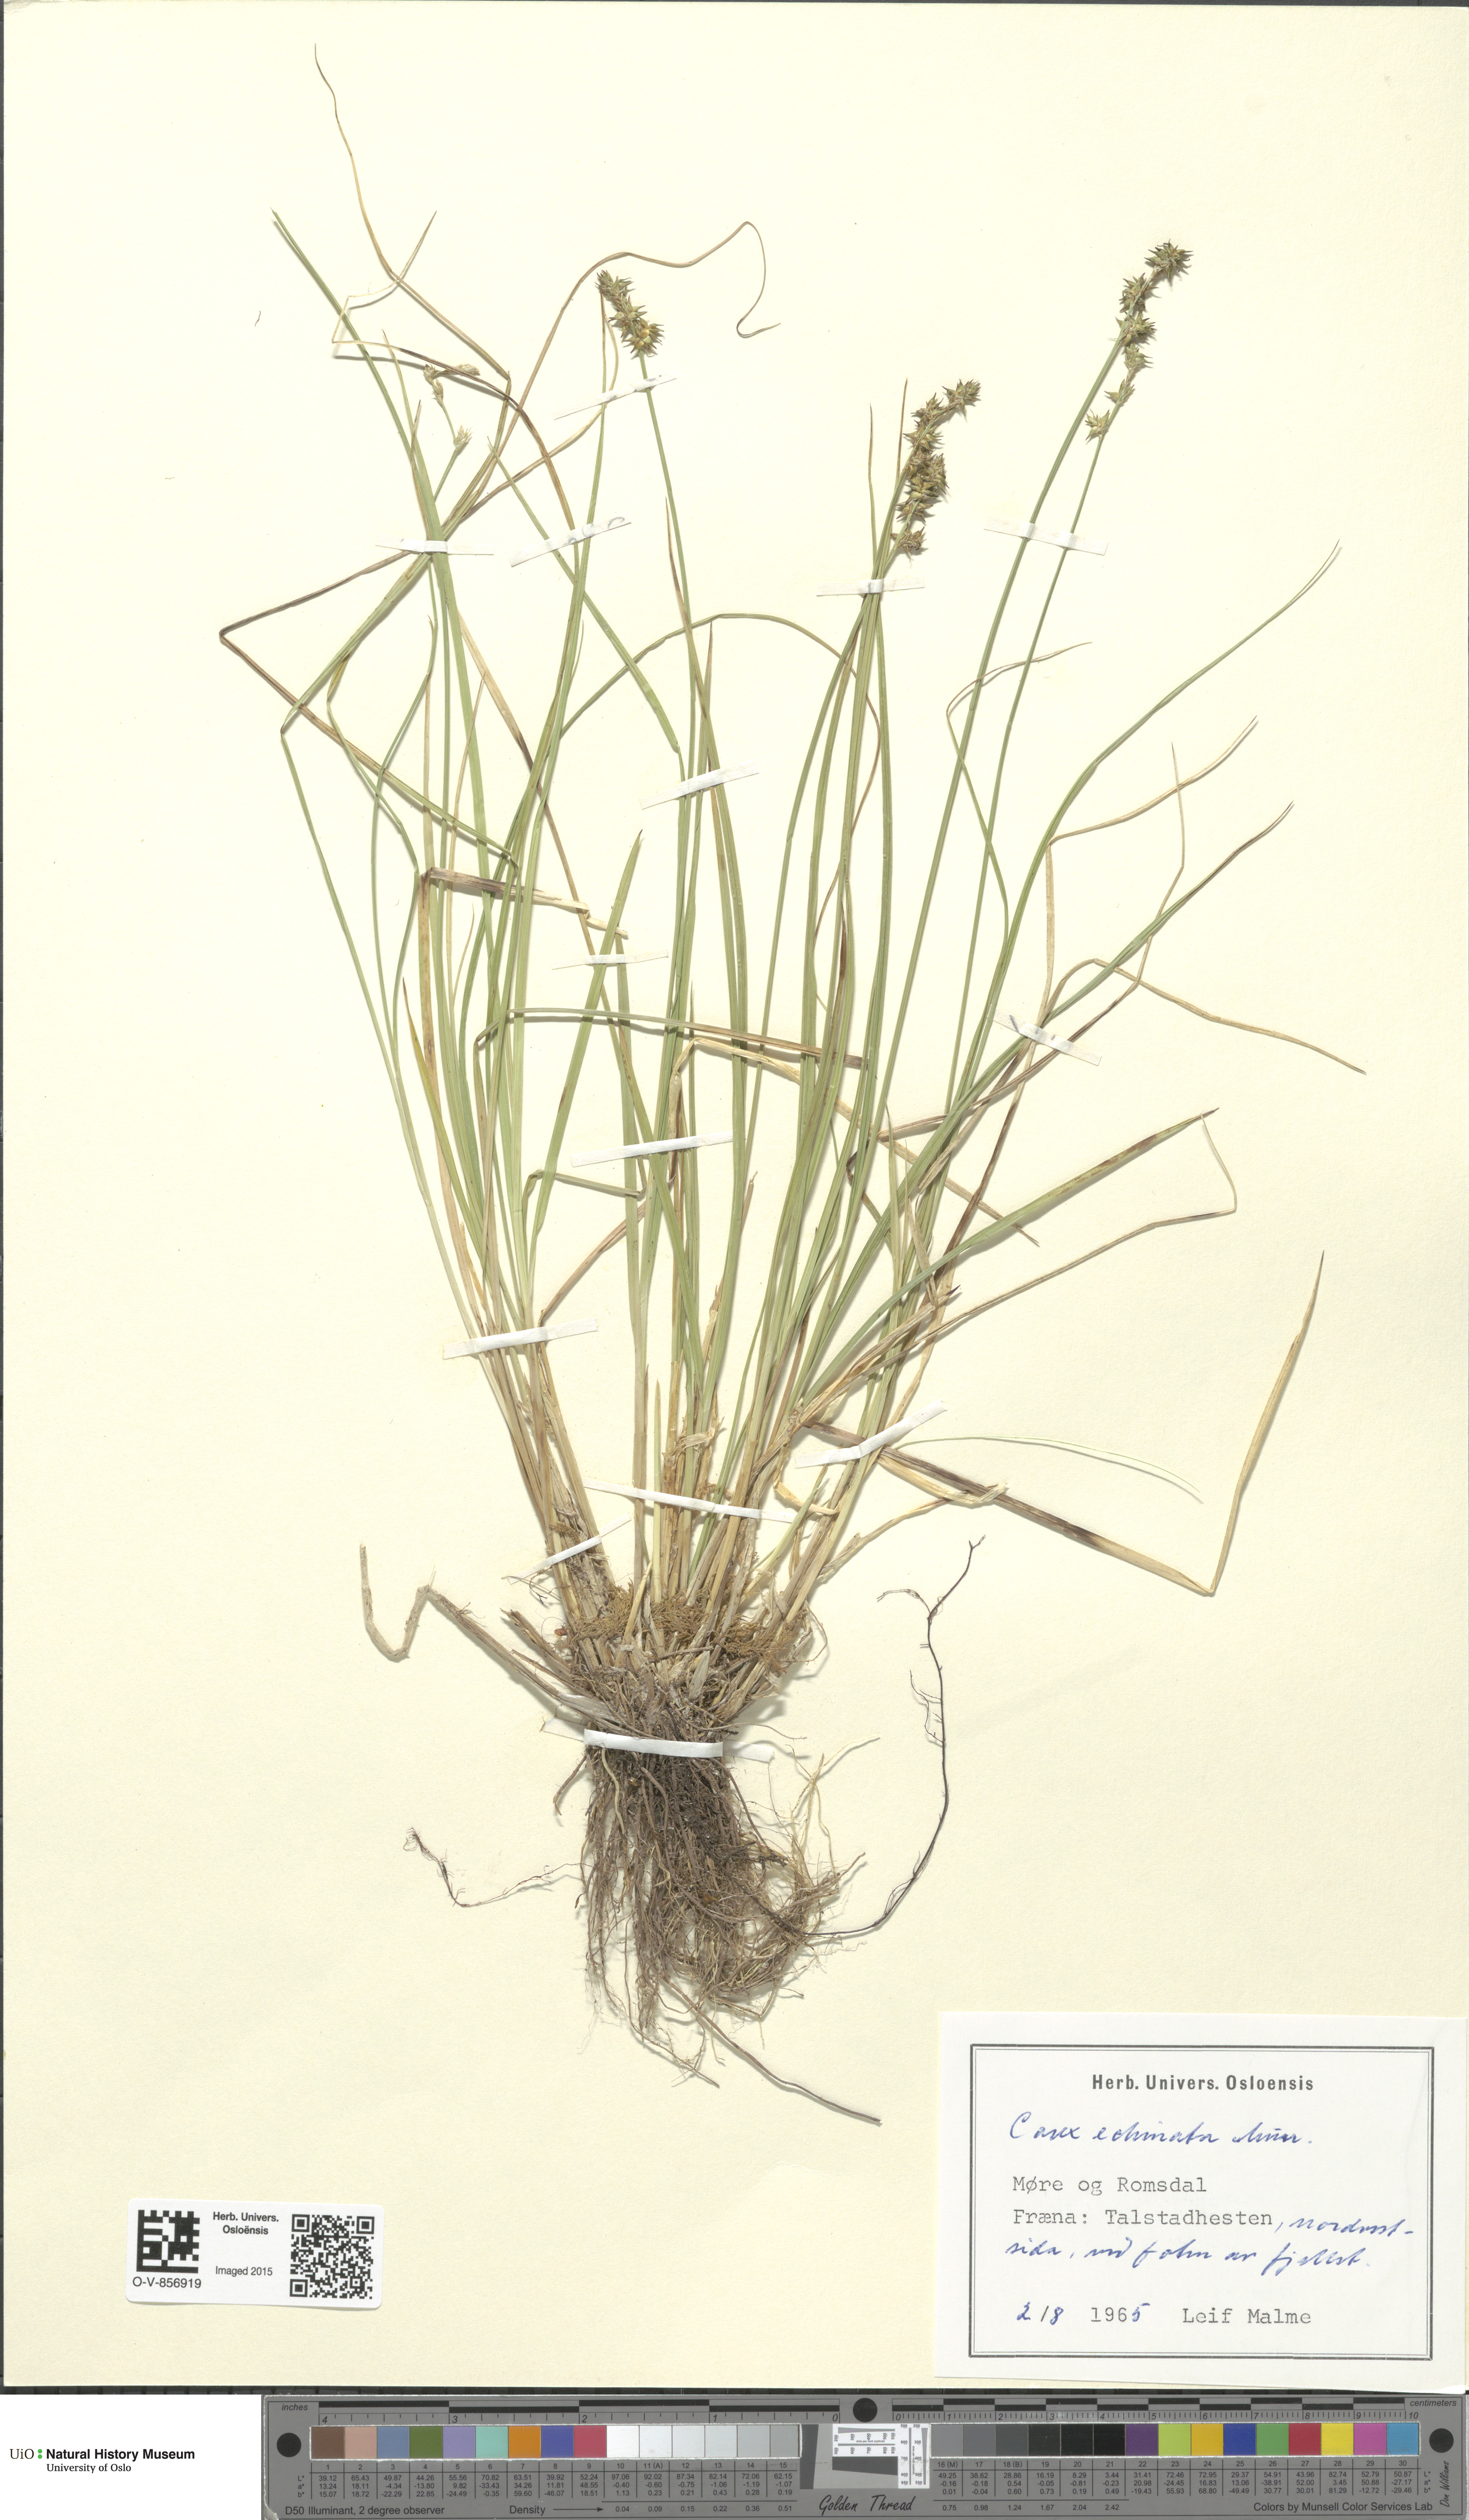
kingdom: Plantae
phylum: Tracheophyta
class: Liliopsida
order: Poales
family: Cyperaceae
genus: Carex
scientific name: Carex echinata
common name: Star sedge
